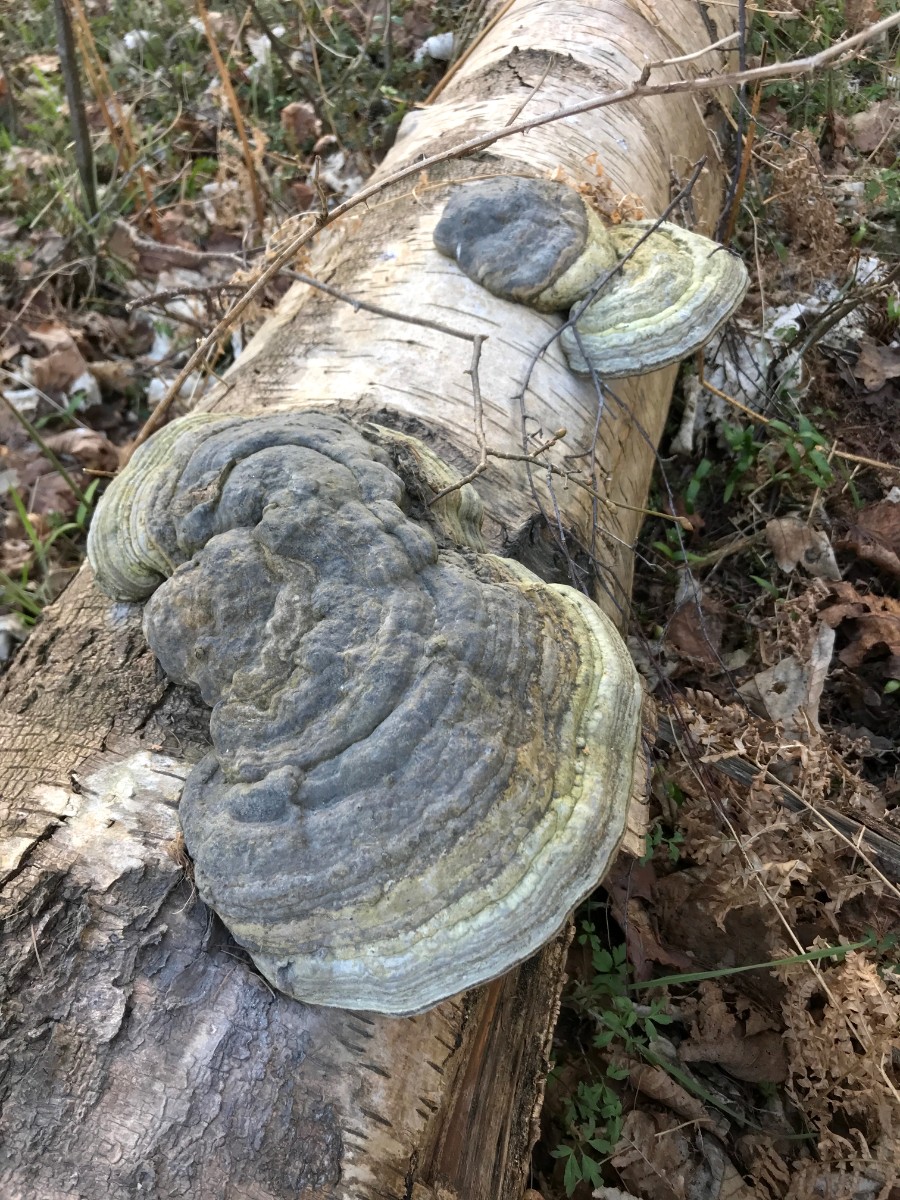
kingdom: Fungi
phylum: Basidiomycota
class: Agaricomycetes
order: Polyporales
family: Polyporaceae
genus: Fomes
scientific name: Fomes fomentarius
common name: tøndersvamp
